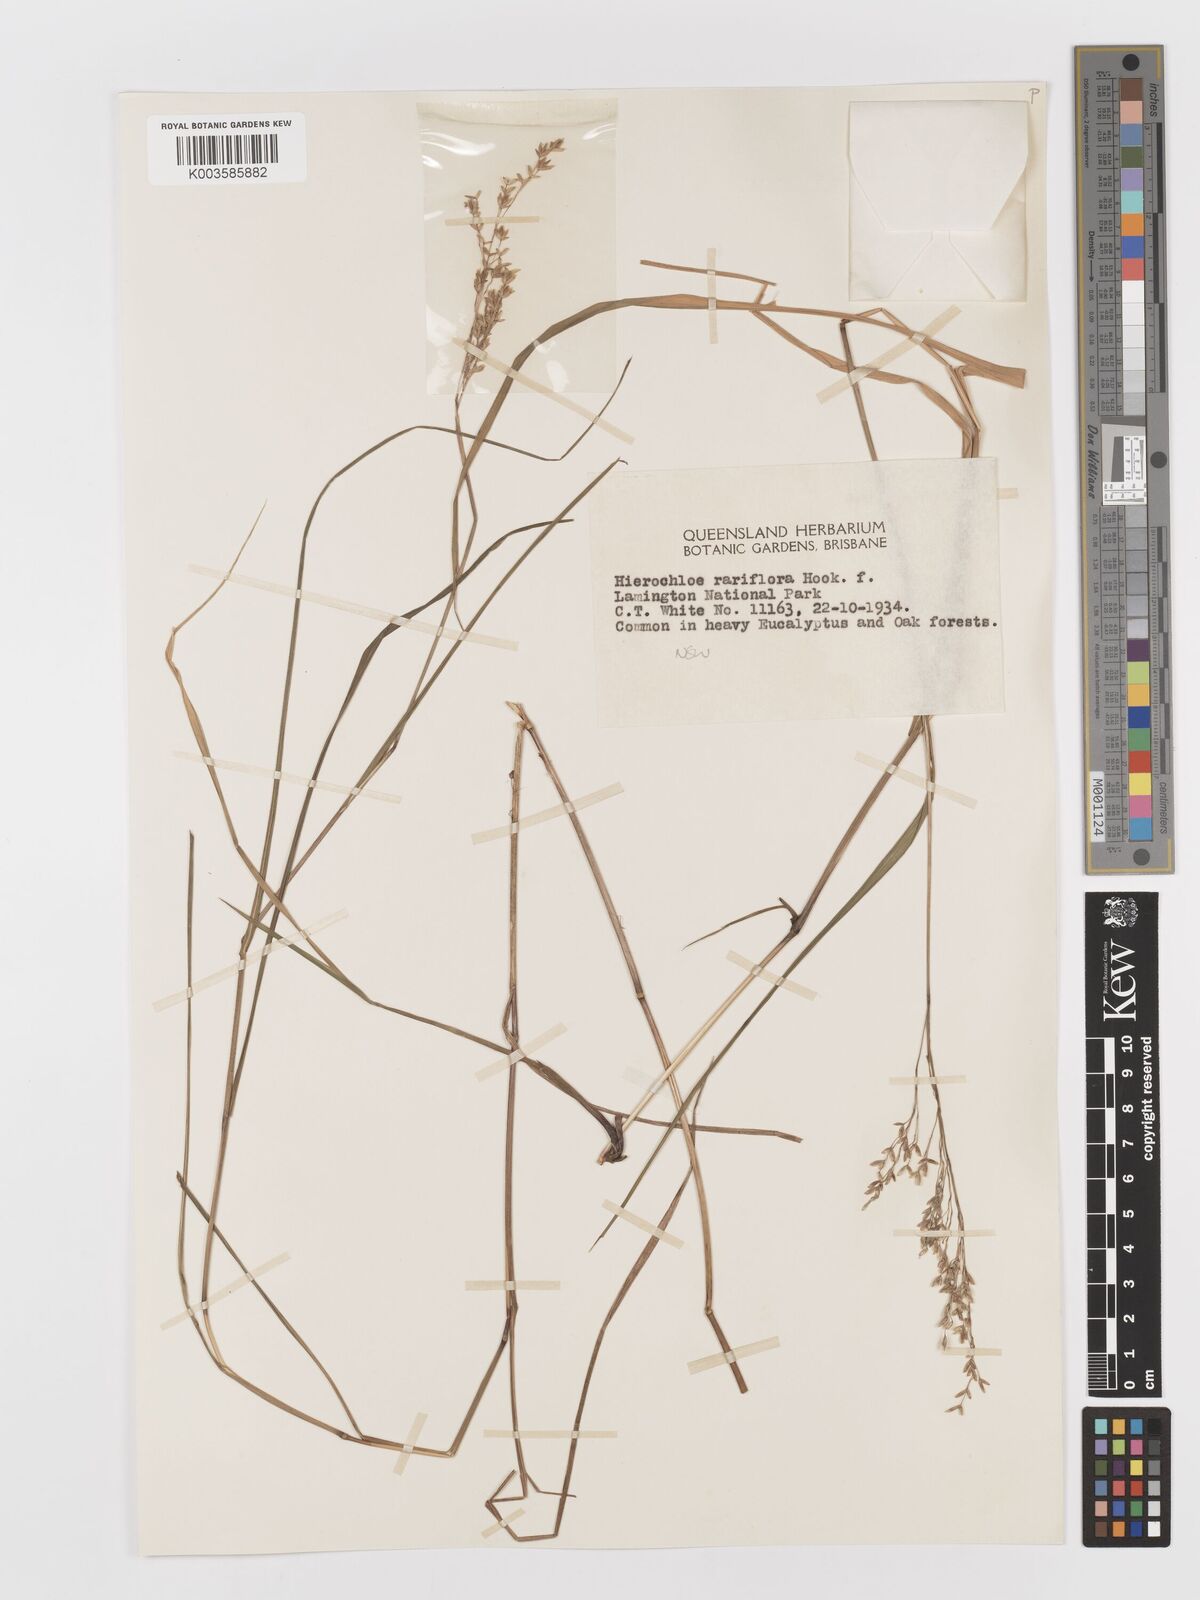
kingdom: Plantae
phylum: Tracheophyta
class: Liliopsida
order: Poales
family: Poaceae
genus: Anthoxanthum
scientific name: Anthoxanthum rariflorum
